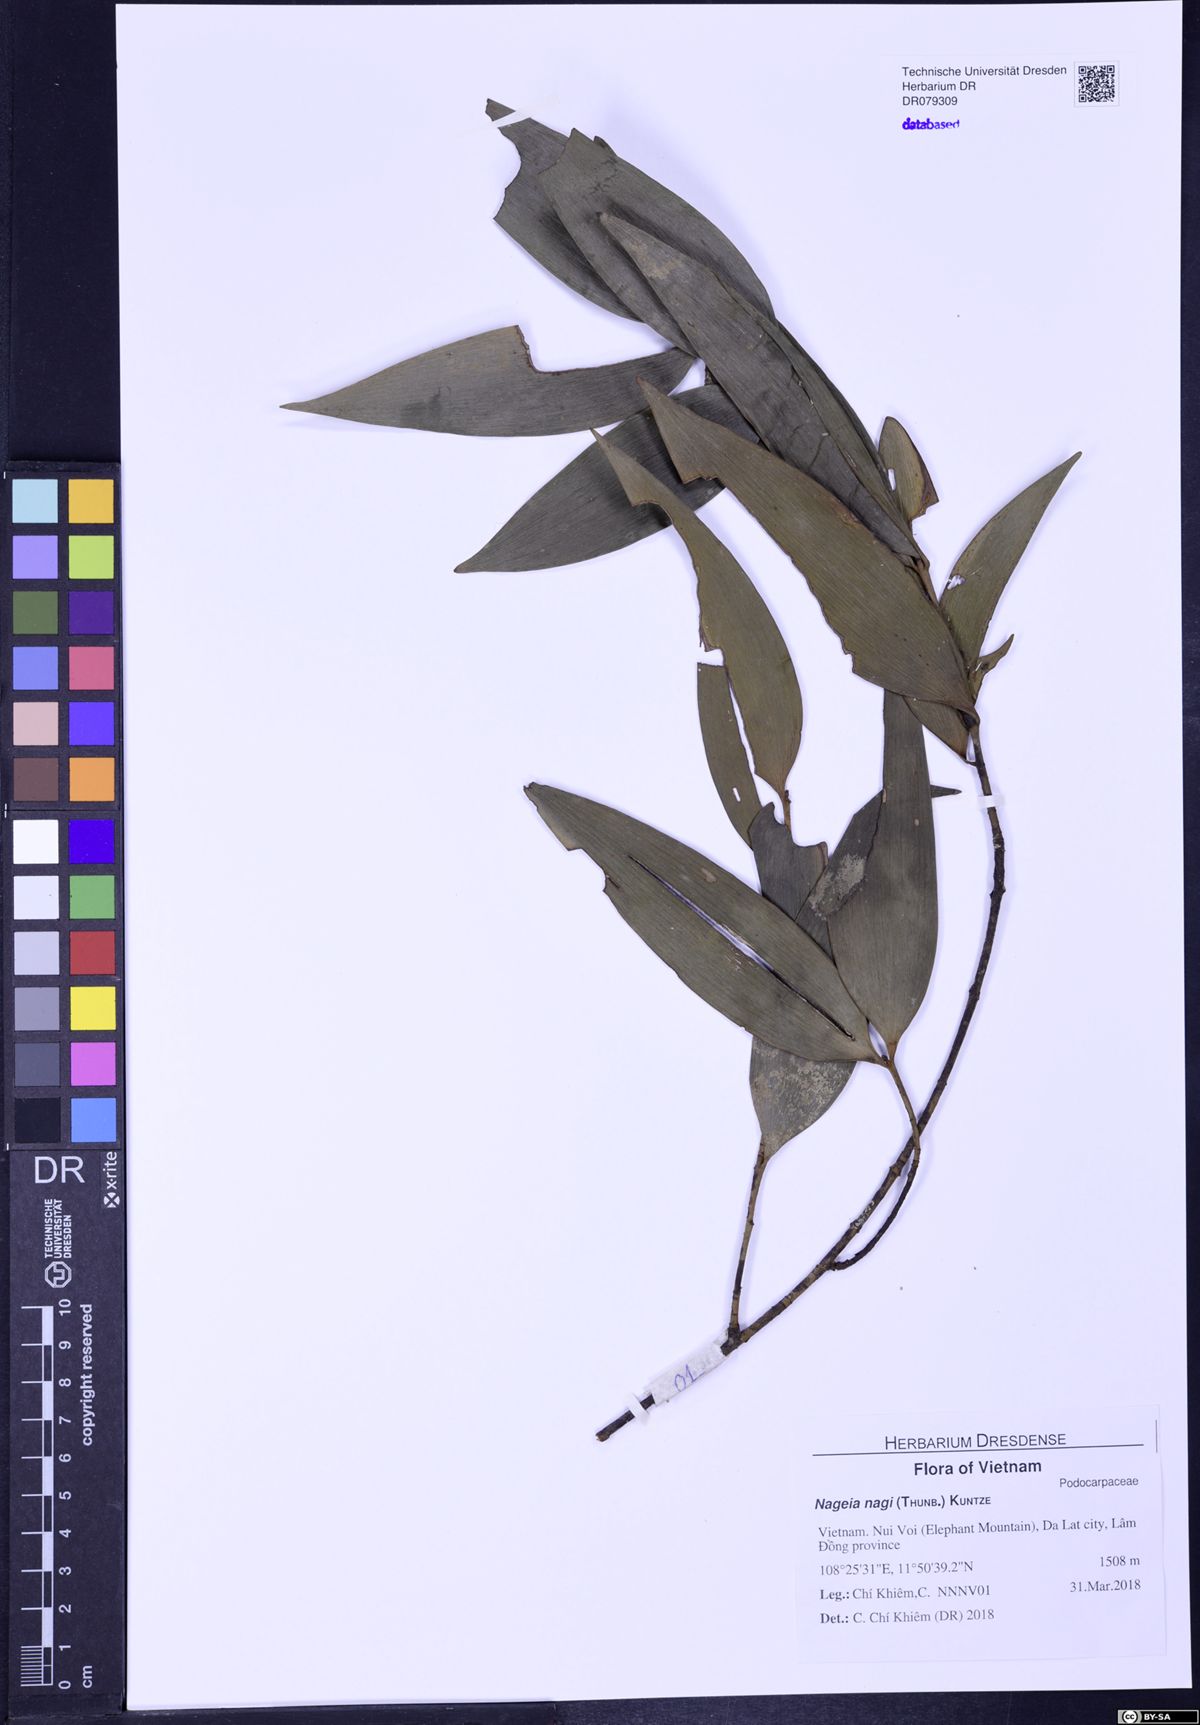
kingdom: Plantae
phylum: Tracheophyta
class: Pinopsida
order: Pinales
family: Podocarpaceae
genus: Nageia
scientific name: Nageia nagi
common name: Kaphal
